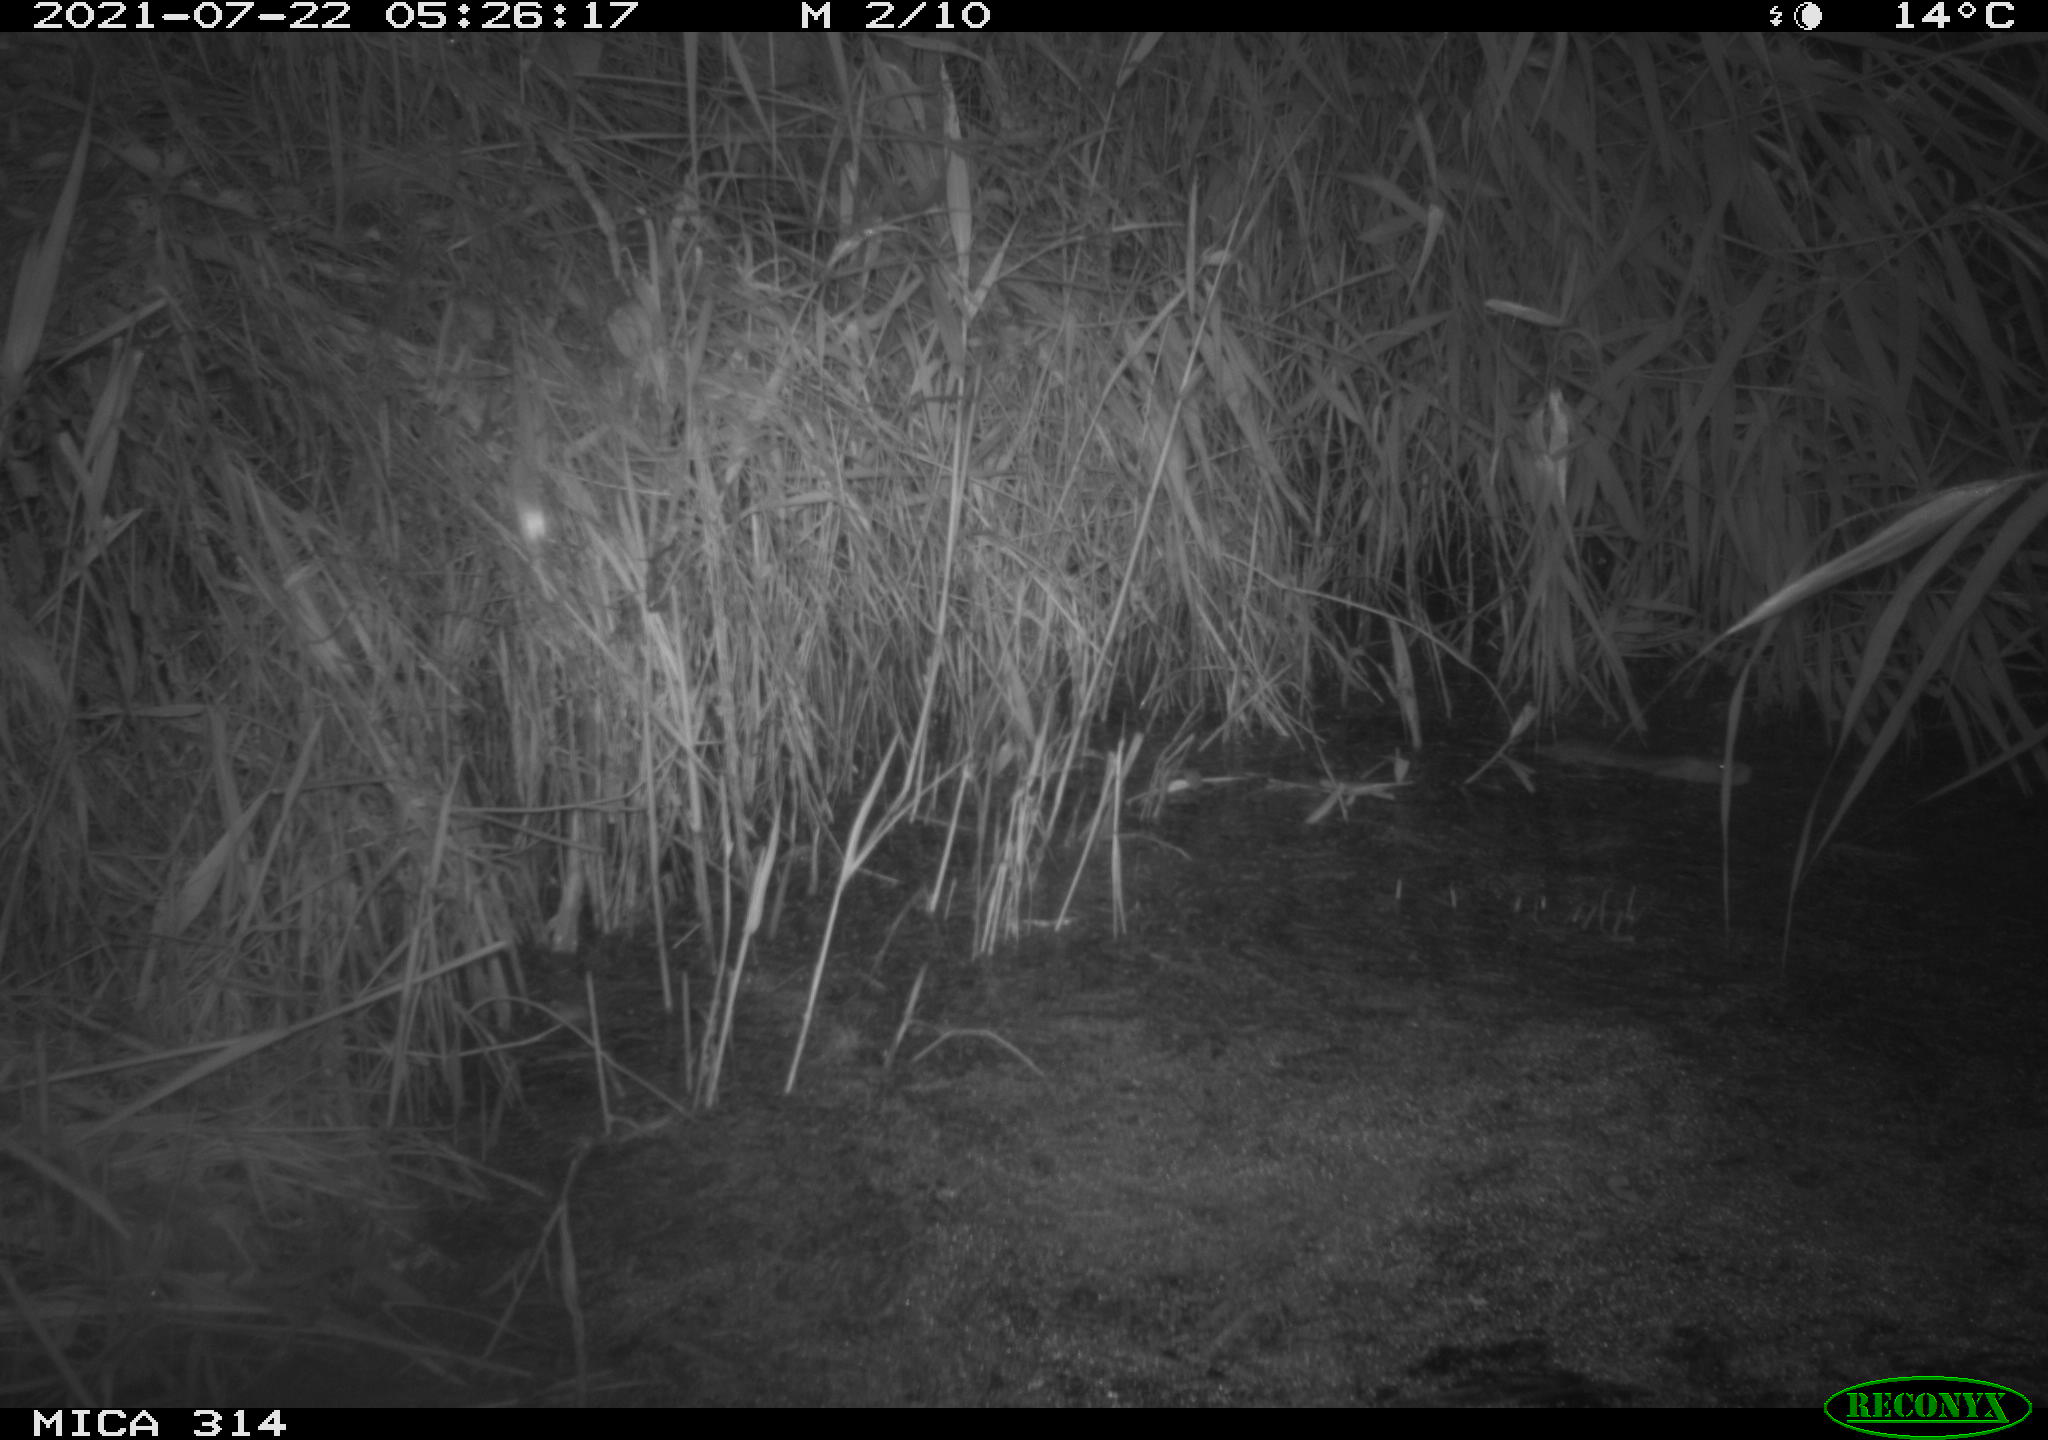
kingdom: Animalia
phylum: Chordata
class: Mammalia
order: Rodentia
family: Muridae
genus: Rattus
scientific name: Rattus norvegicus
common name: Brown rat
